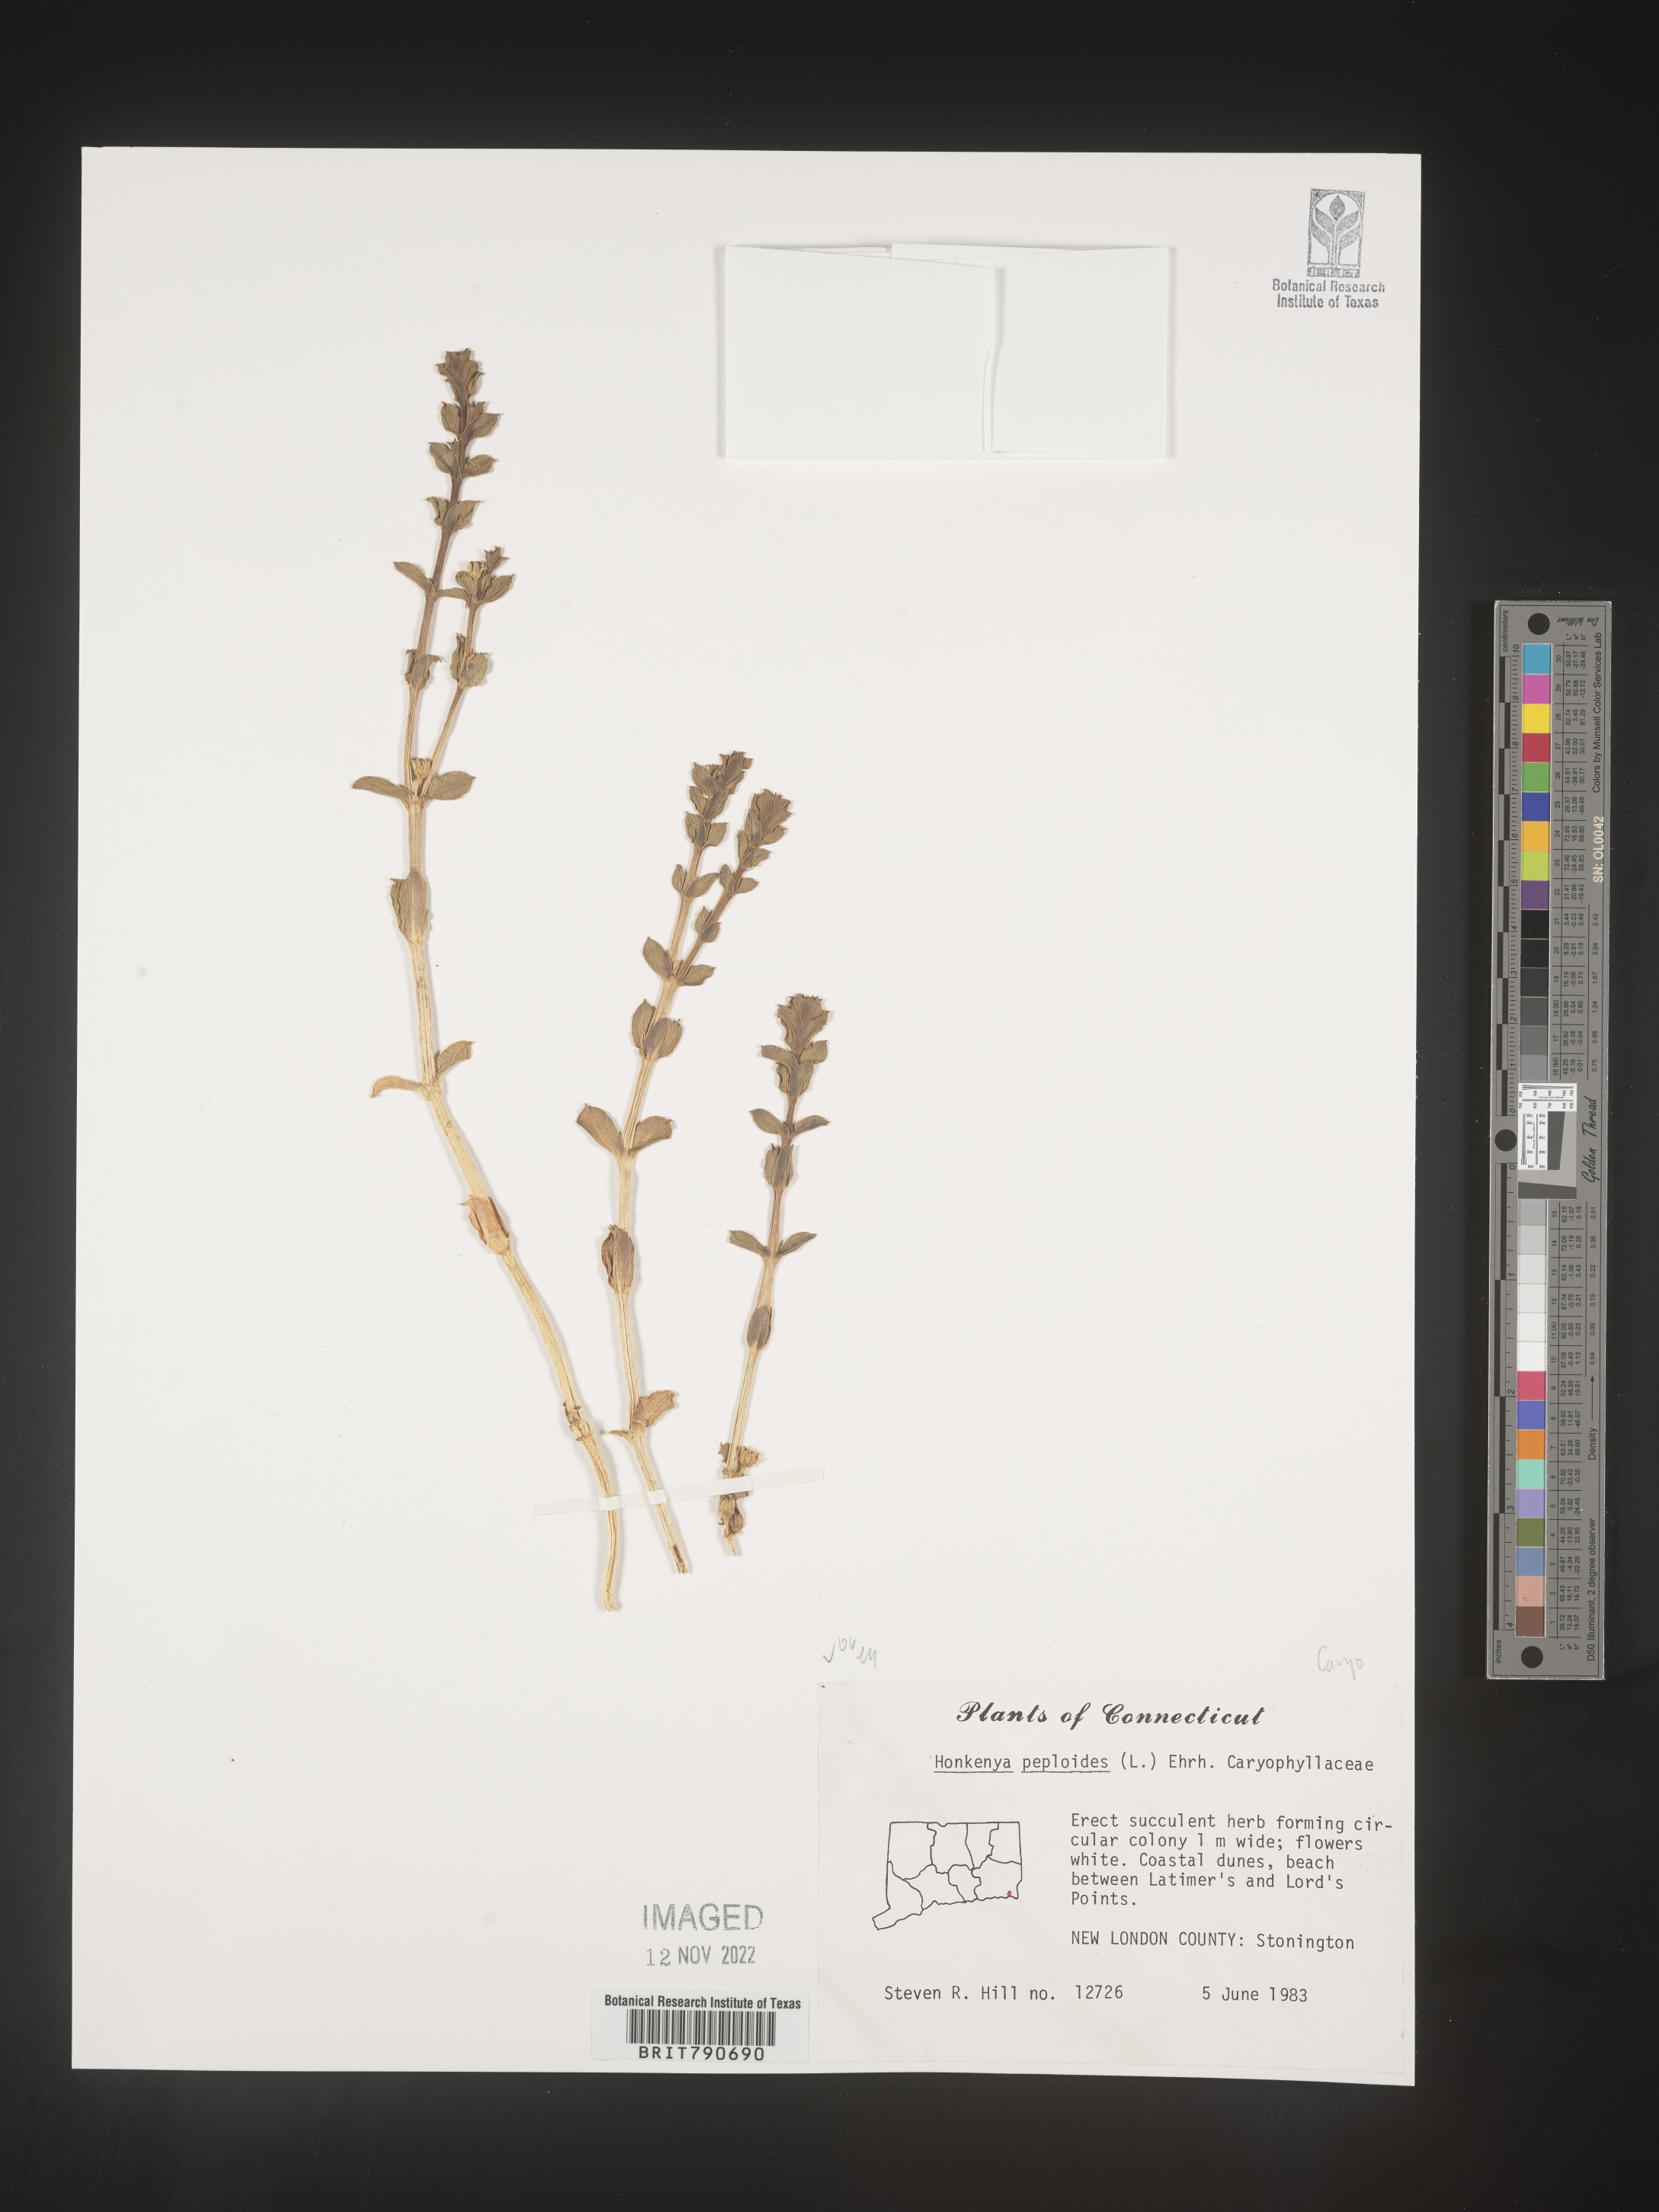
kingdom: Plantae
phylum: Tracheophyta
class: Magnoliopsida
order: Malvales
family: Malvaceae
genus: Clappertonia
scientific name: Clappertonia
